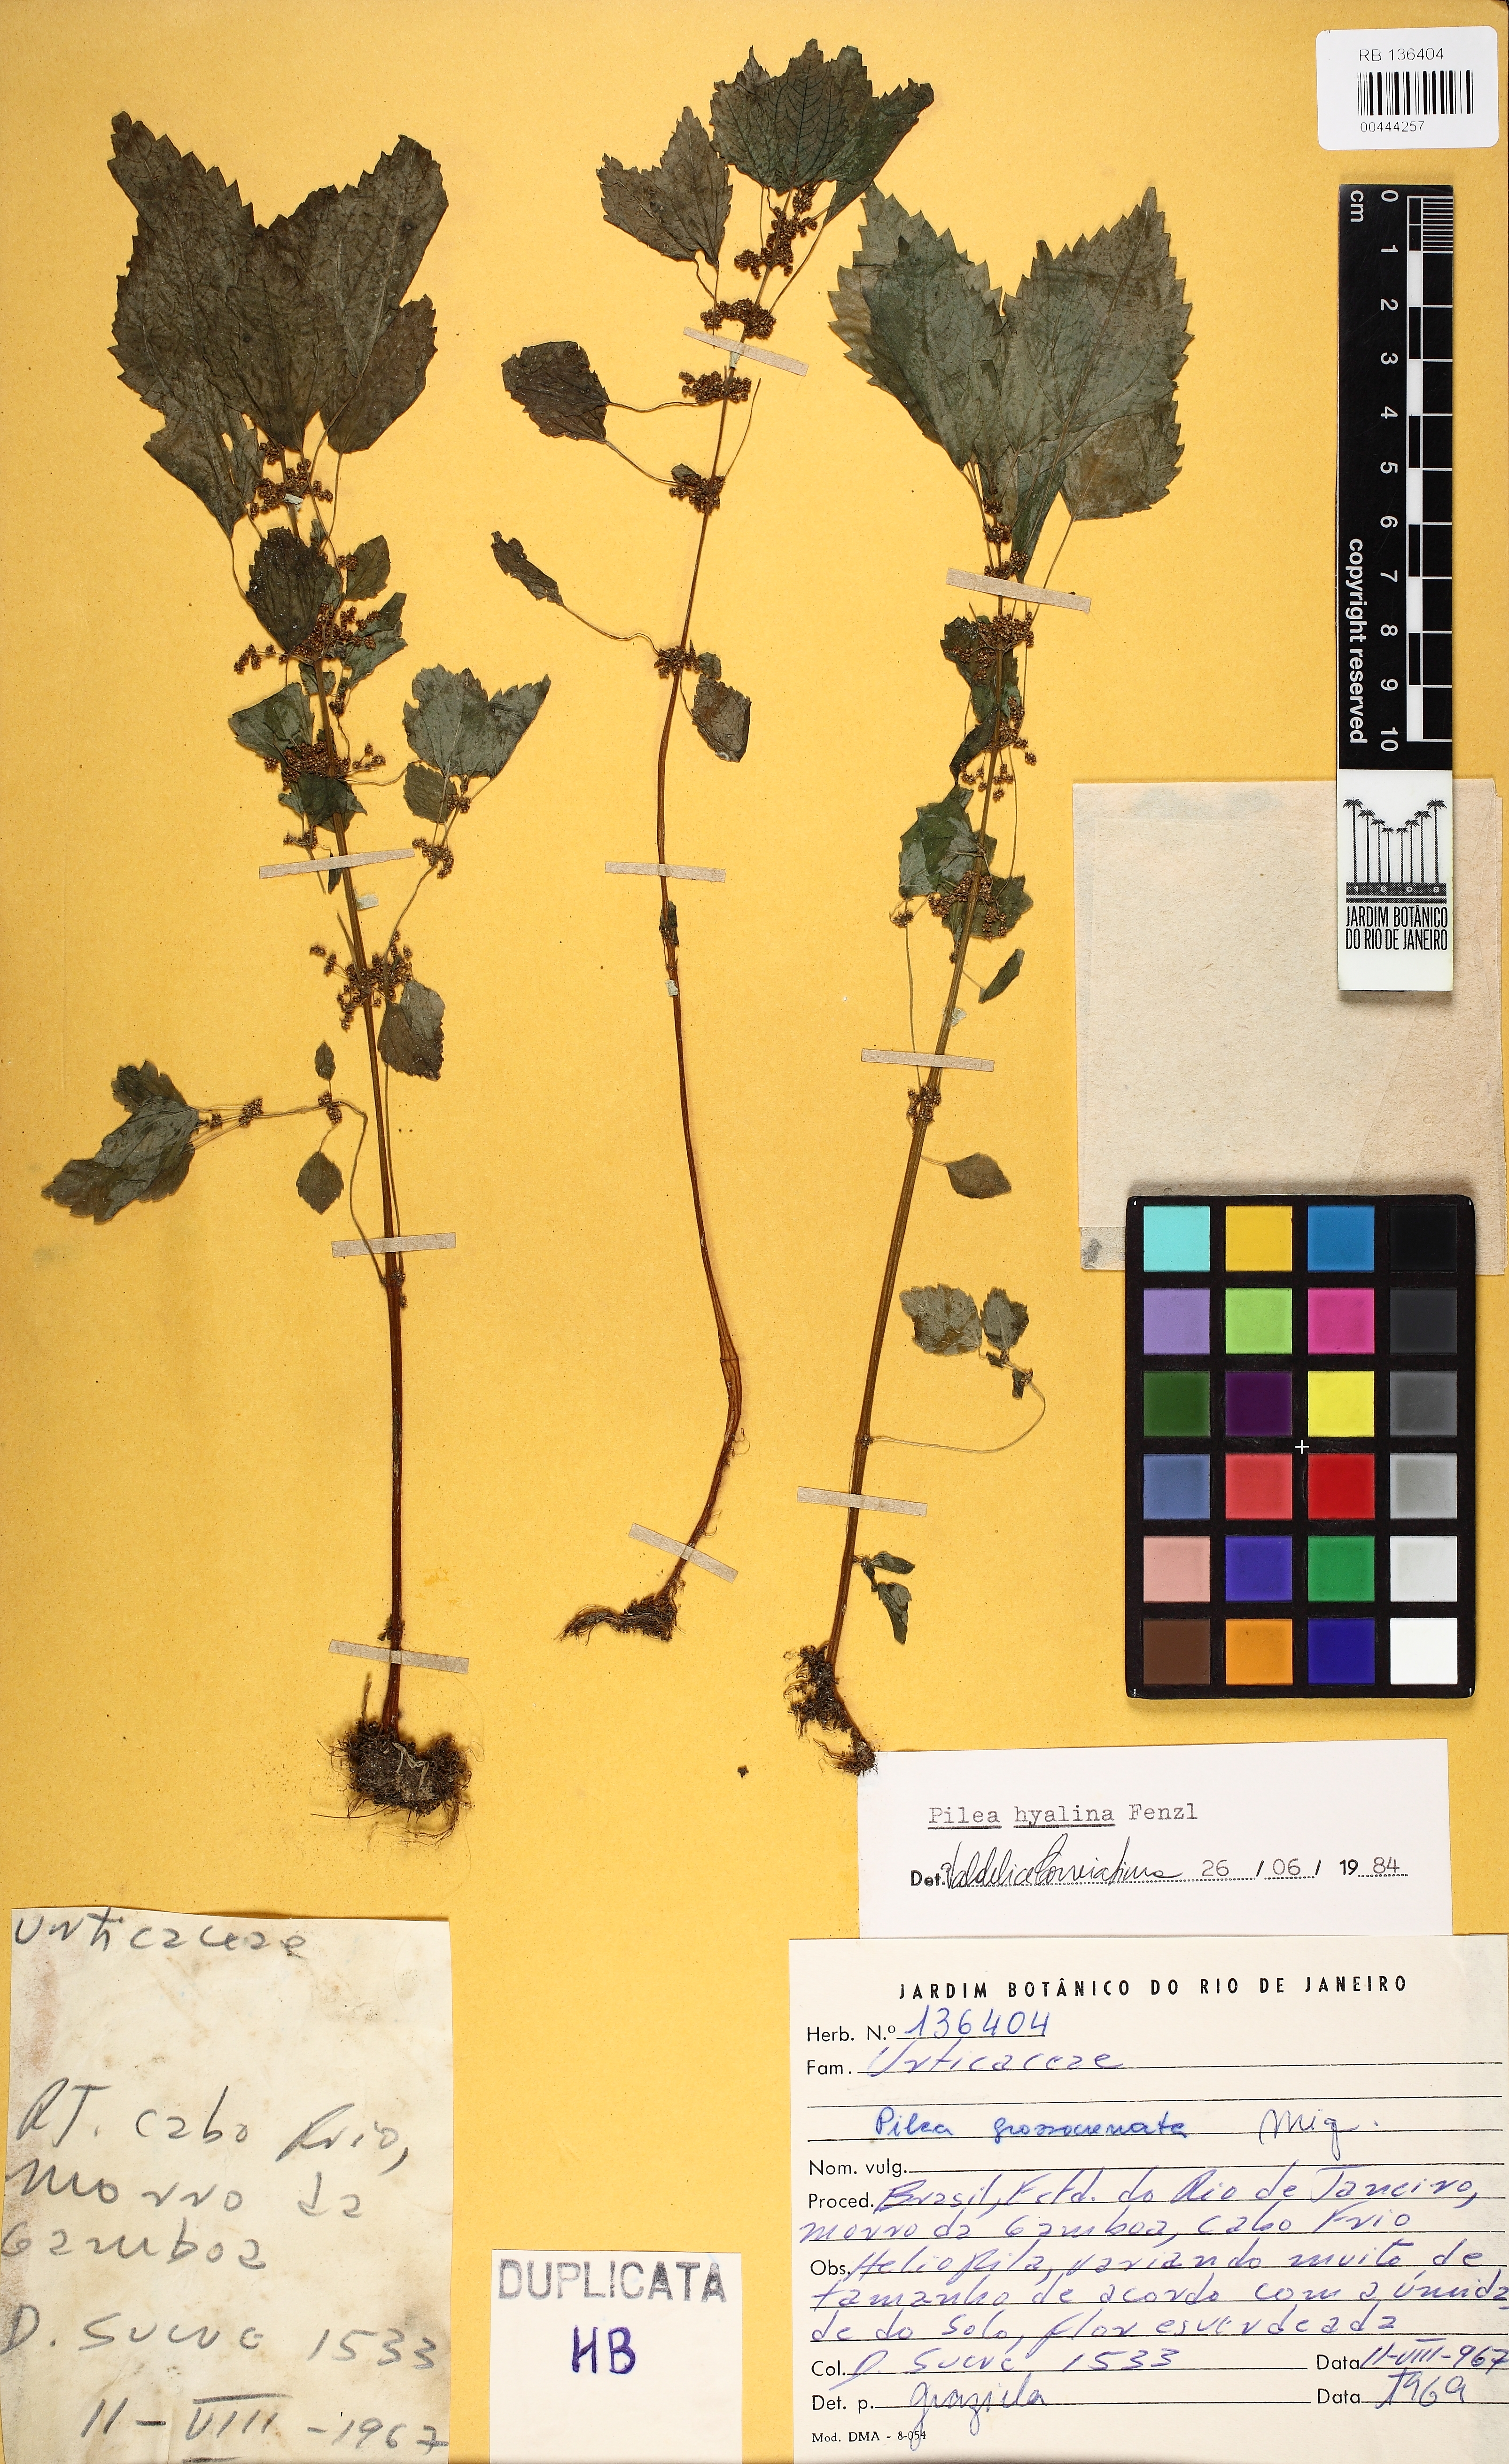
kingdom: Plantae
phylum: Tracheophyta
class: Magnoliopsida
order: Rosales
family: Urticaceae
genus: Pilea
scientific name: Pilea hyalina
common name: Virdrillo
